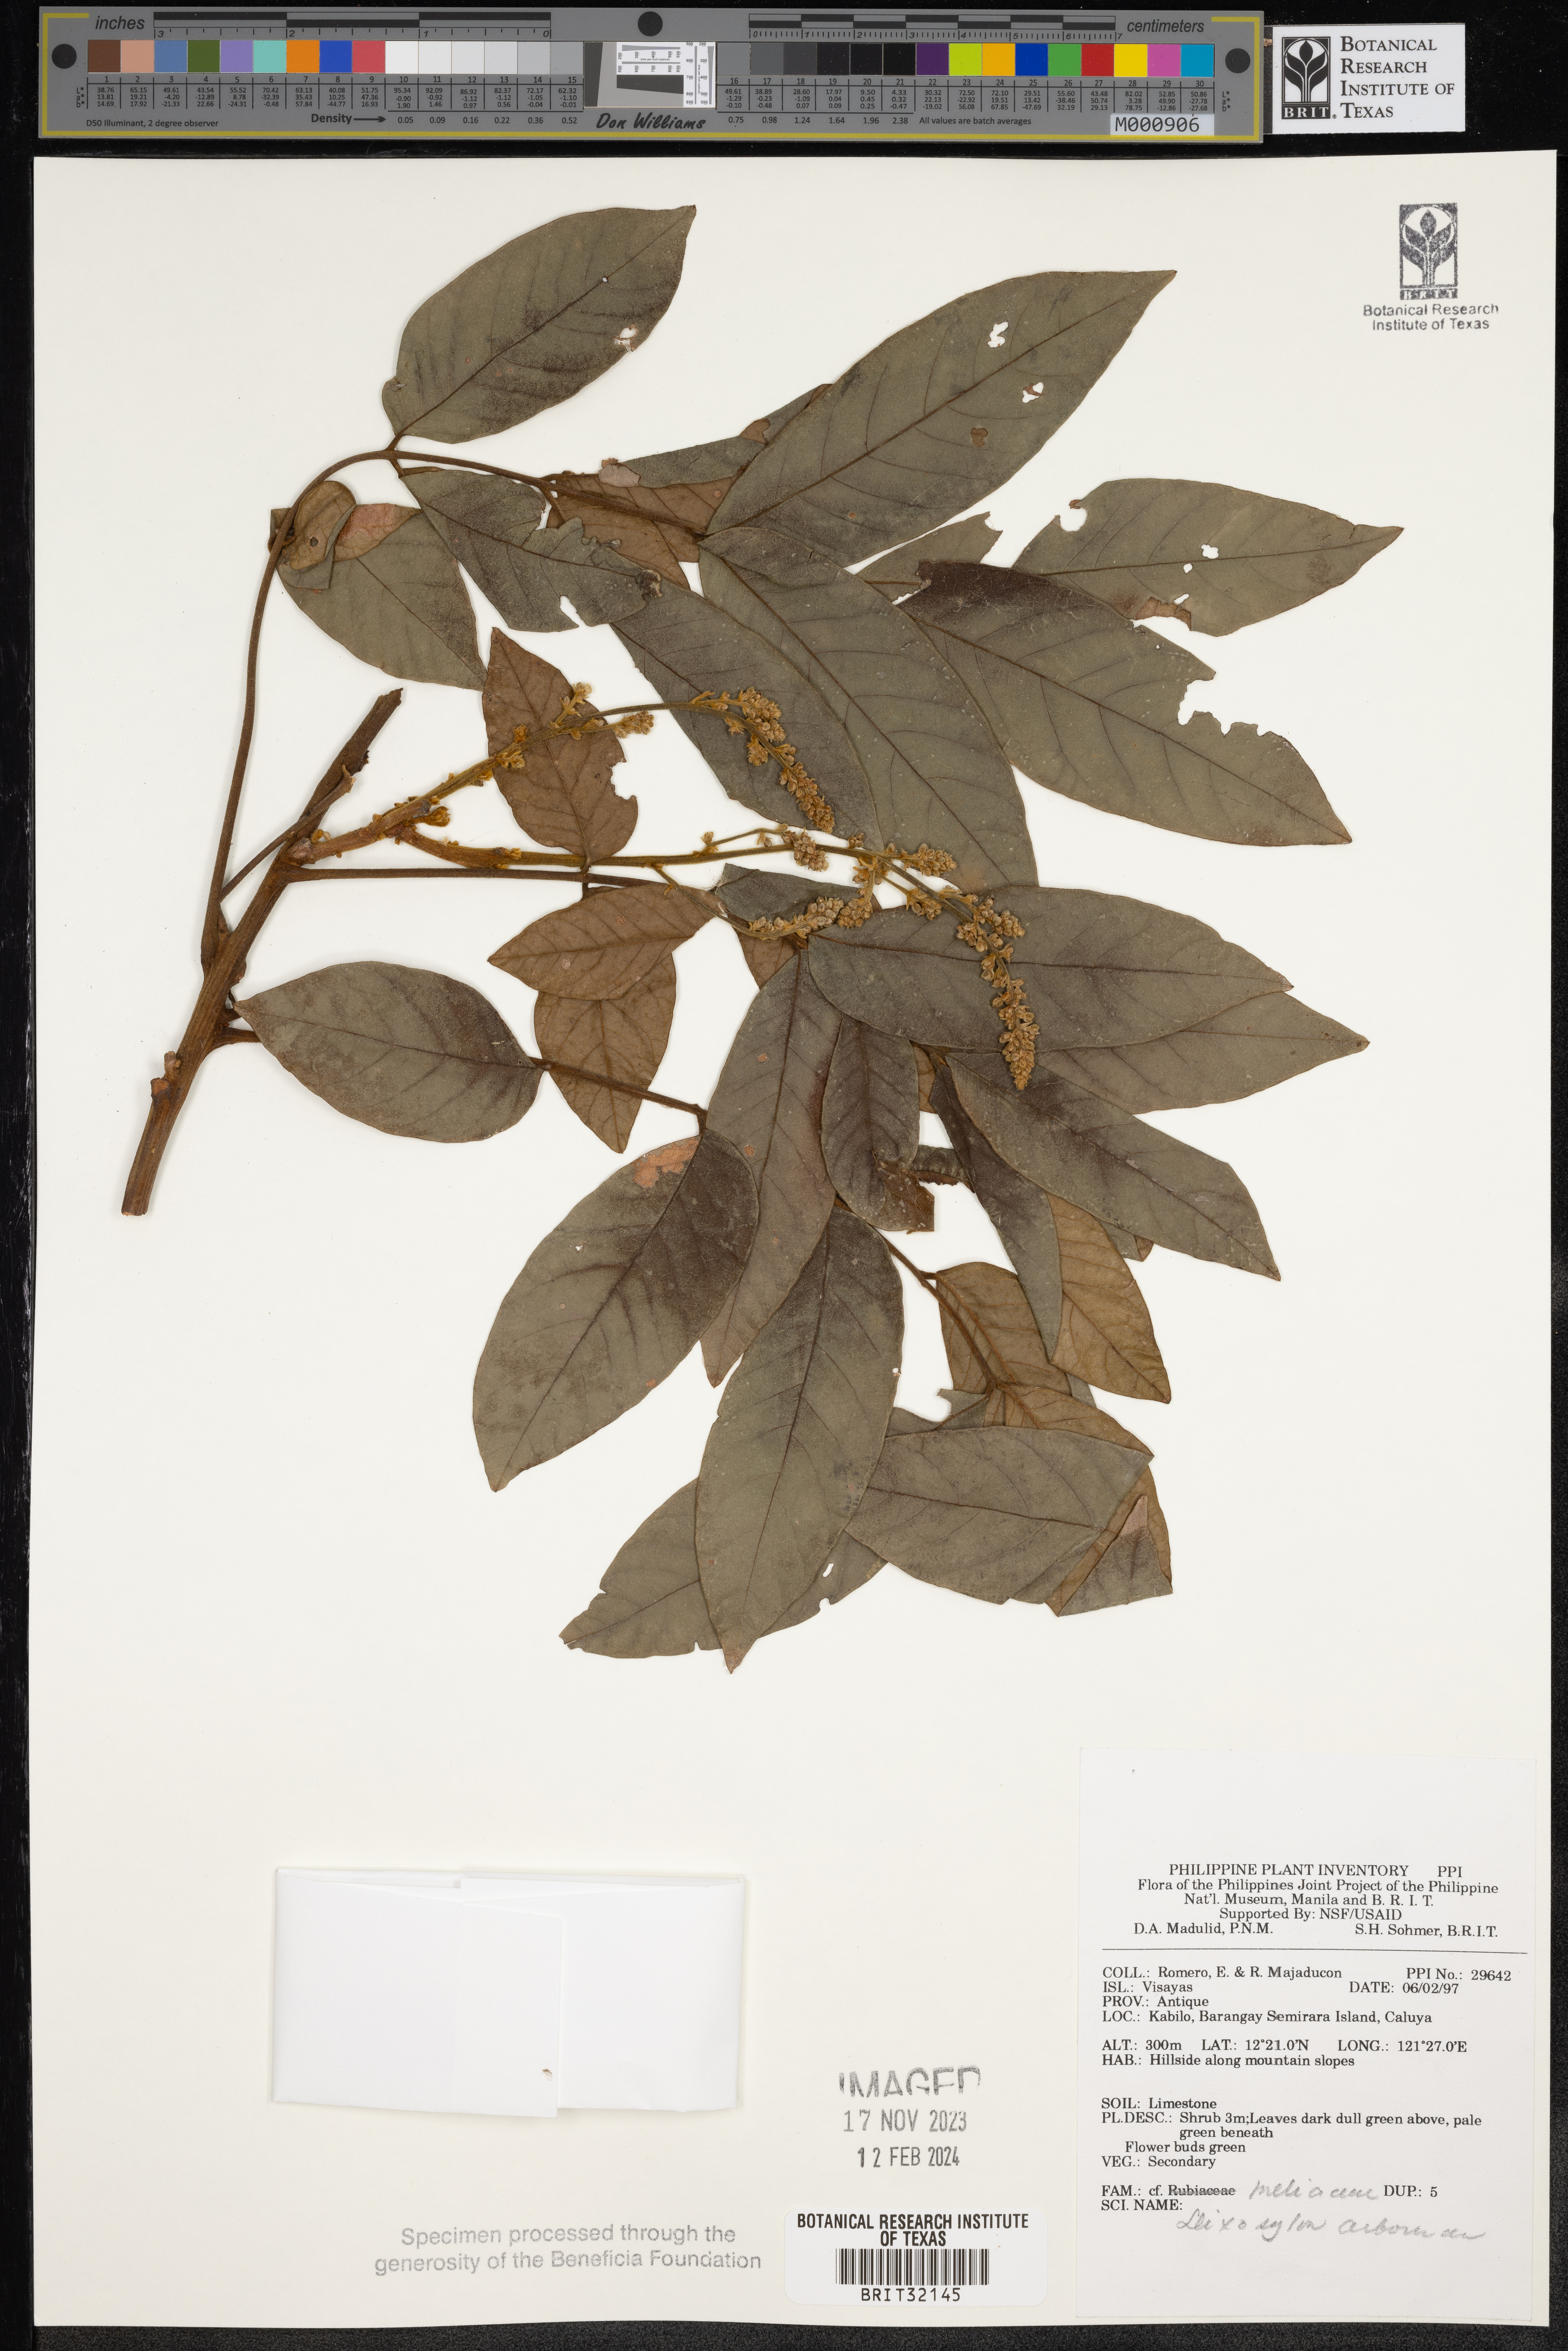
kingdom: Plantae
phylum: Tracheophyta
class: Magnoliopsida
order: Sapindales
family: Meliaceae
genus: Goniocheton
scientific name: Goniocheton arborescens
